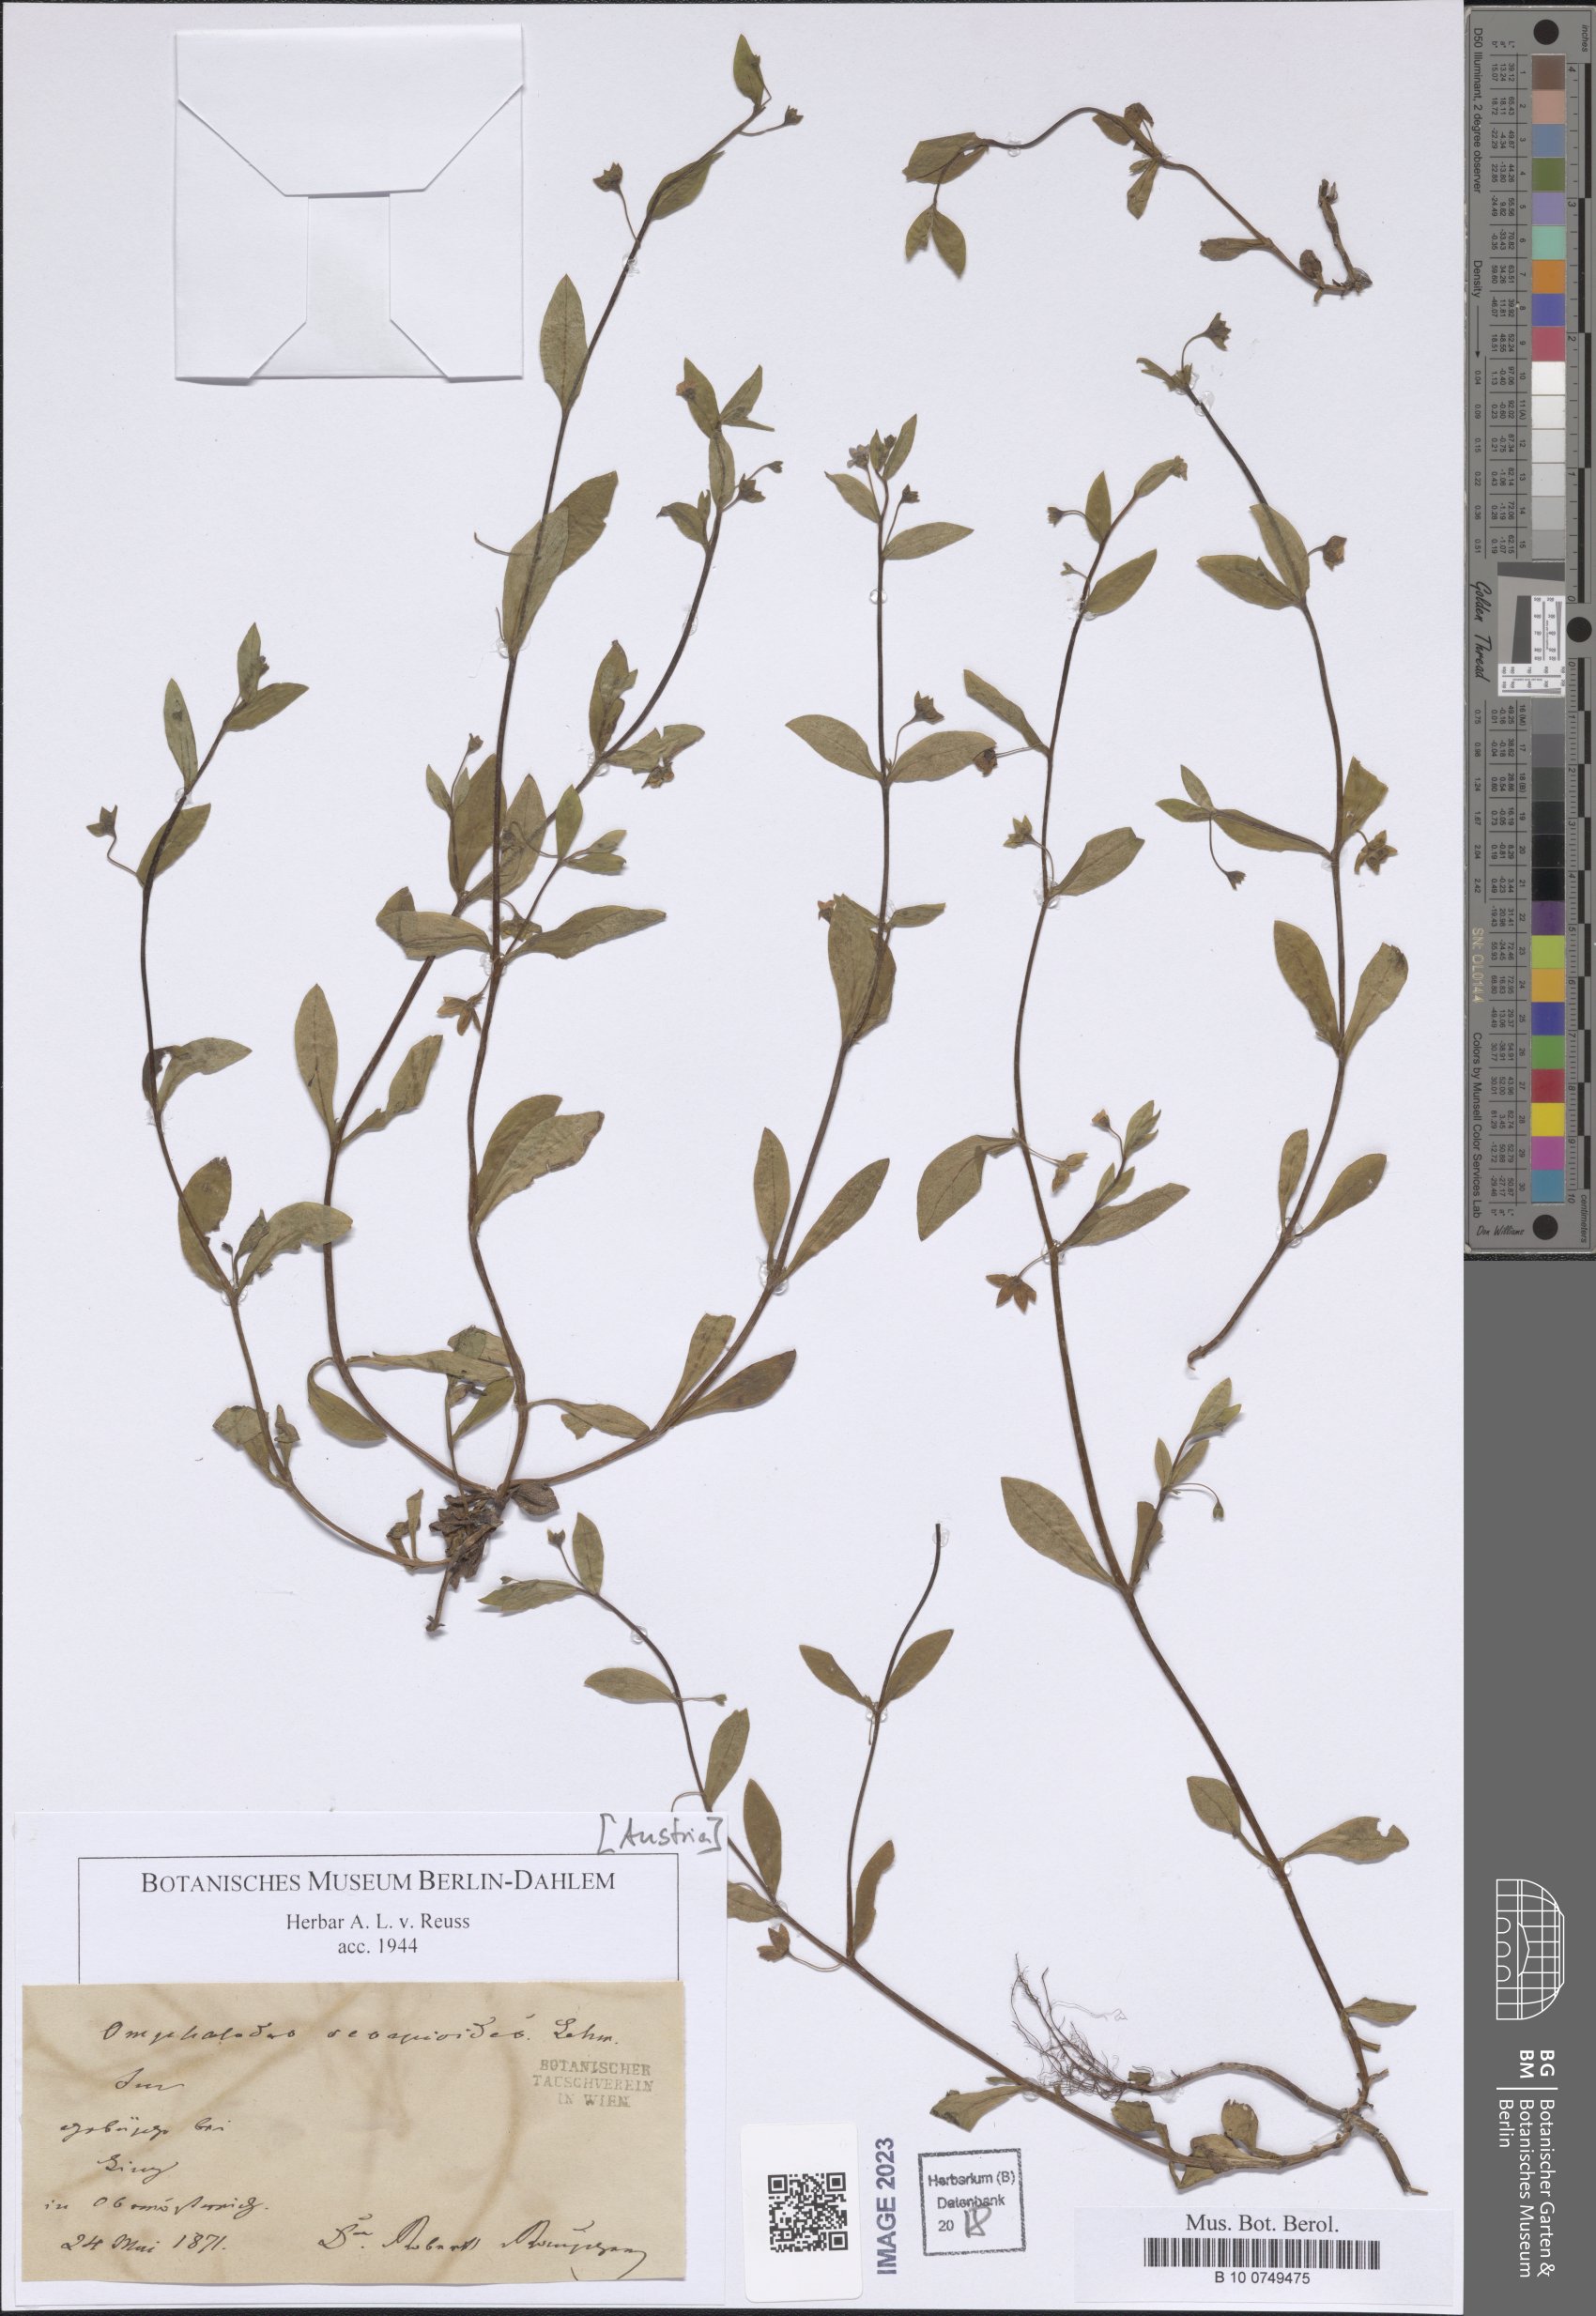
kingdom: Plantae
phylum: Tracheophyta
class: Magnoliopsida
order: Boraginales
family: Boraginaceae
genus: Memoremea
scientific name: Memoremea scorpioides
